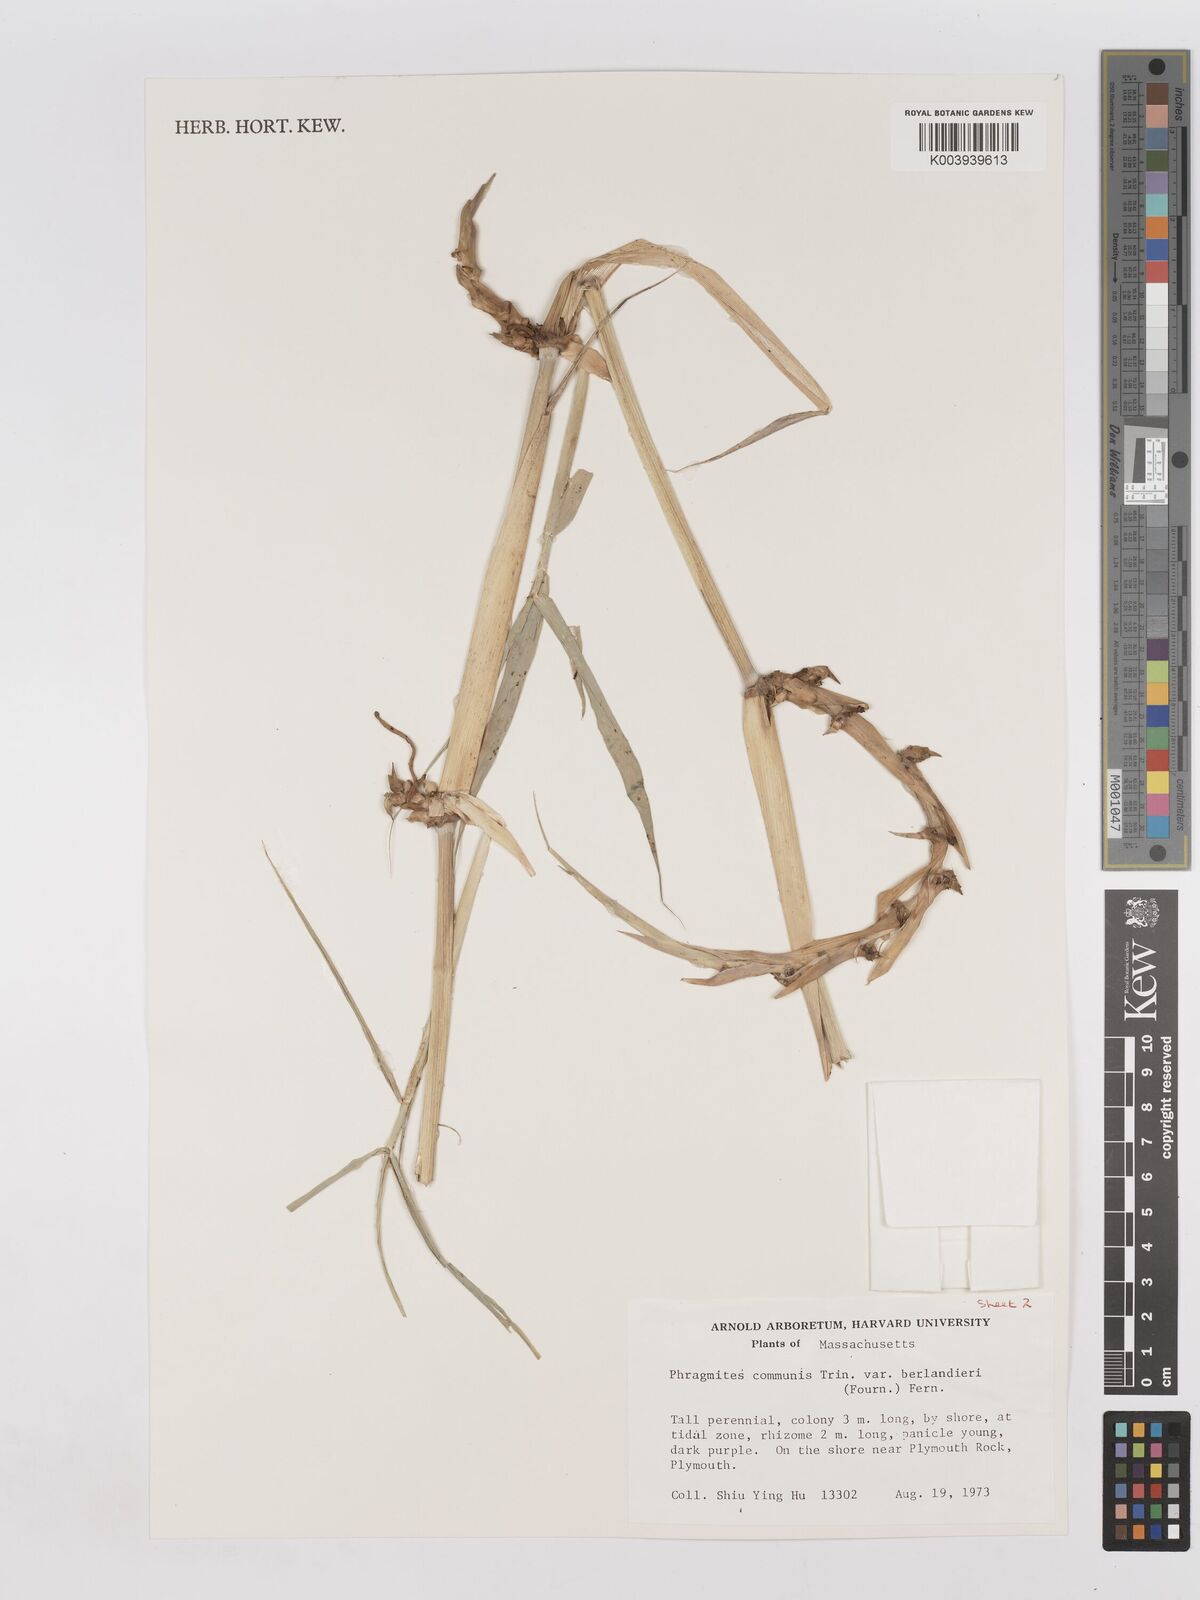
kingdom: Plantae
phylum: Tracheophyta
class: Liliopsida
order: Poales
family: Poaceae
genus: Phragmites
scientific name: Phragmites australis
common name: Common reed
